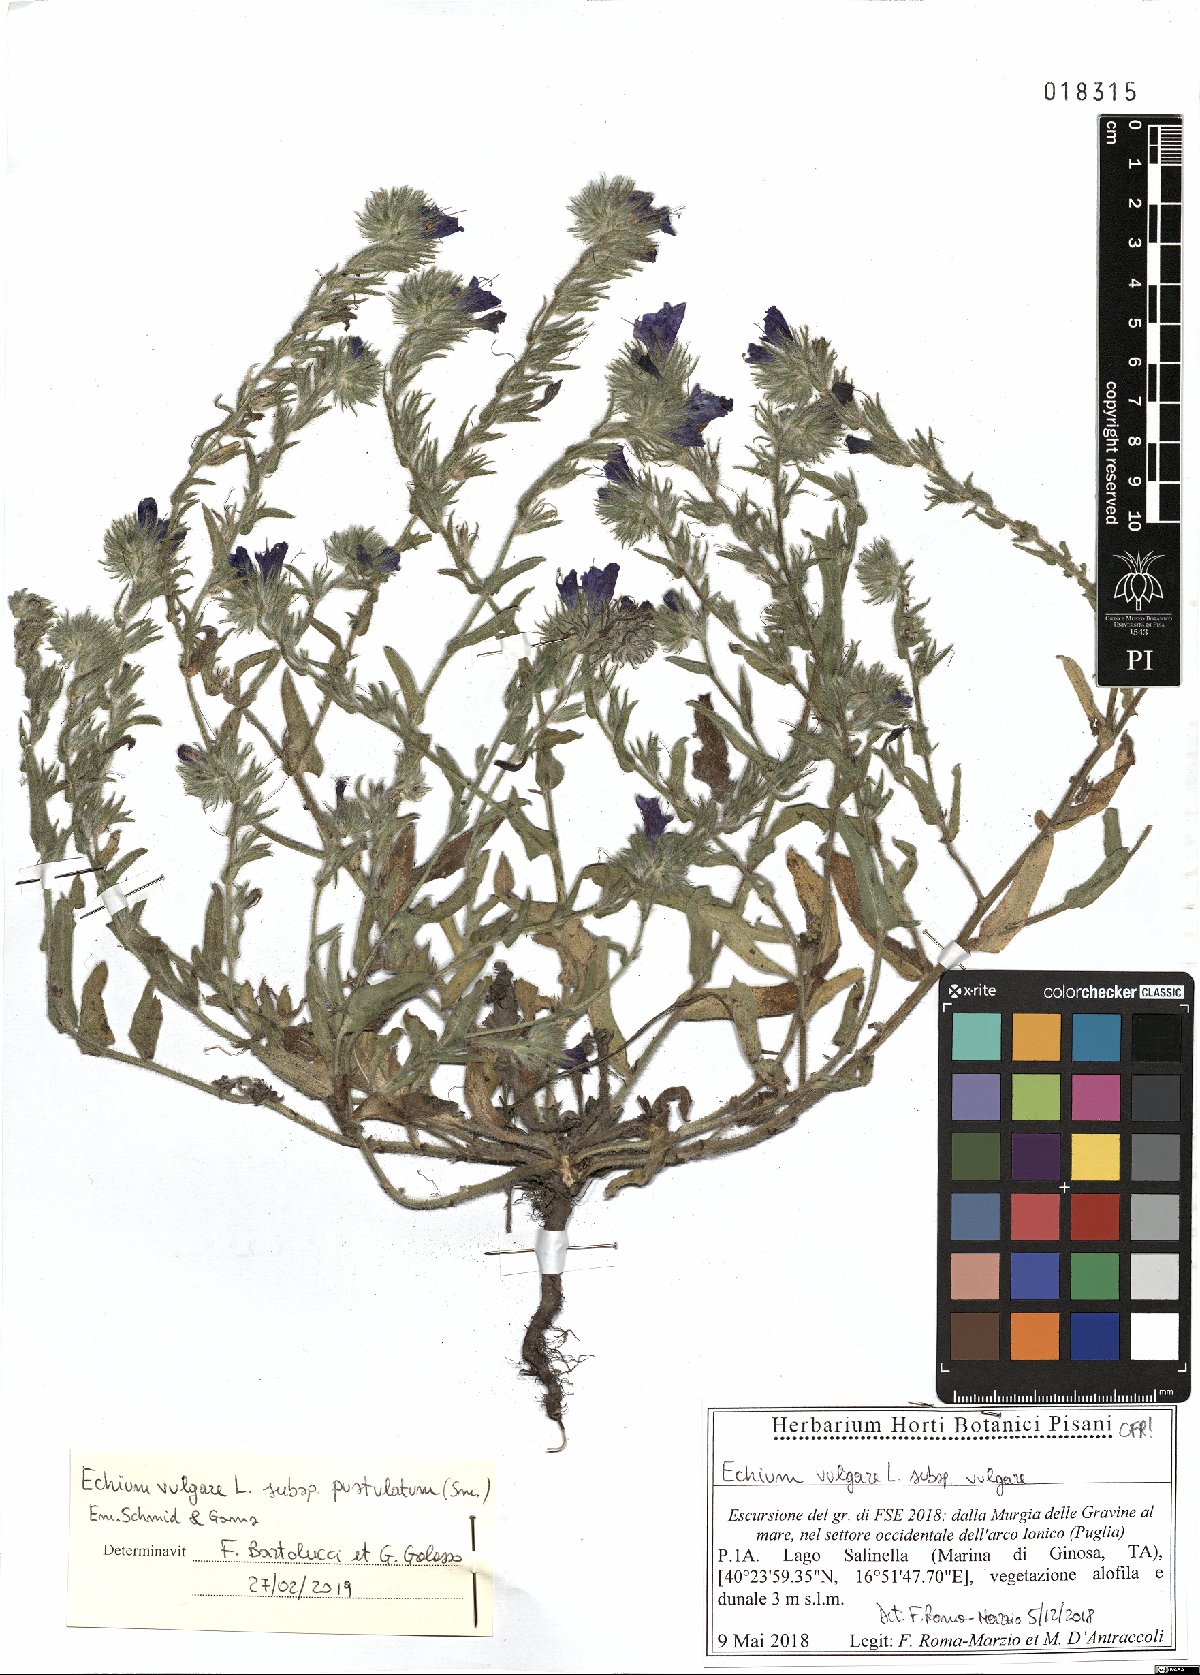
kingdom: Plantae
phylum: Tracheophyta
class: Magnoliopsida
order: Boraginales
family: Boraginaceae
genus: Echium
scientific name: Echium vulgare
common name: Common viper's bugloss
